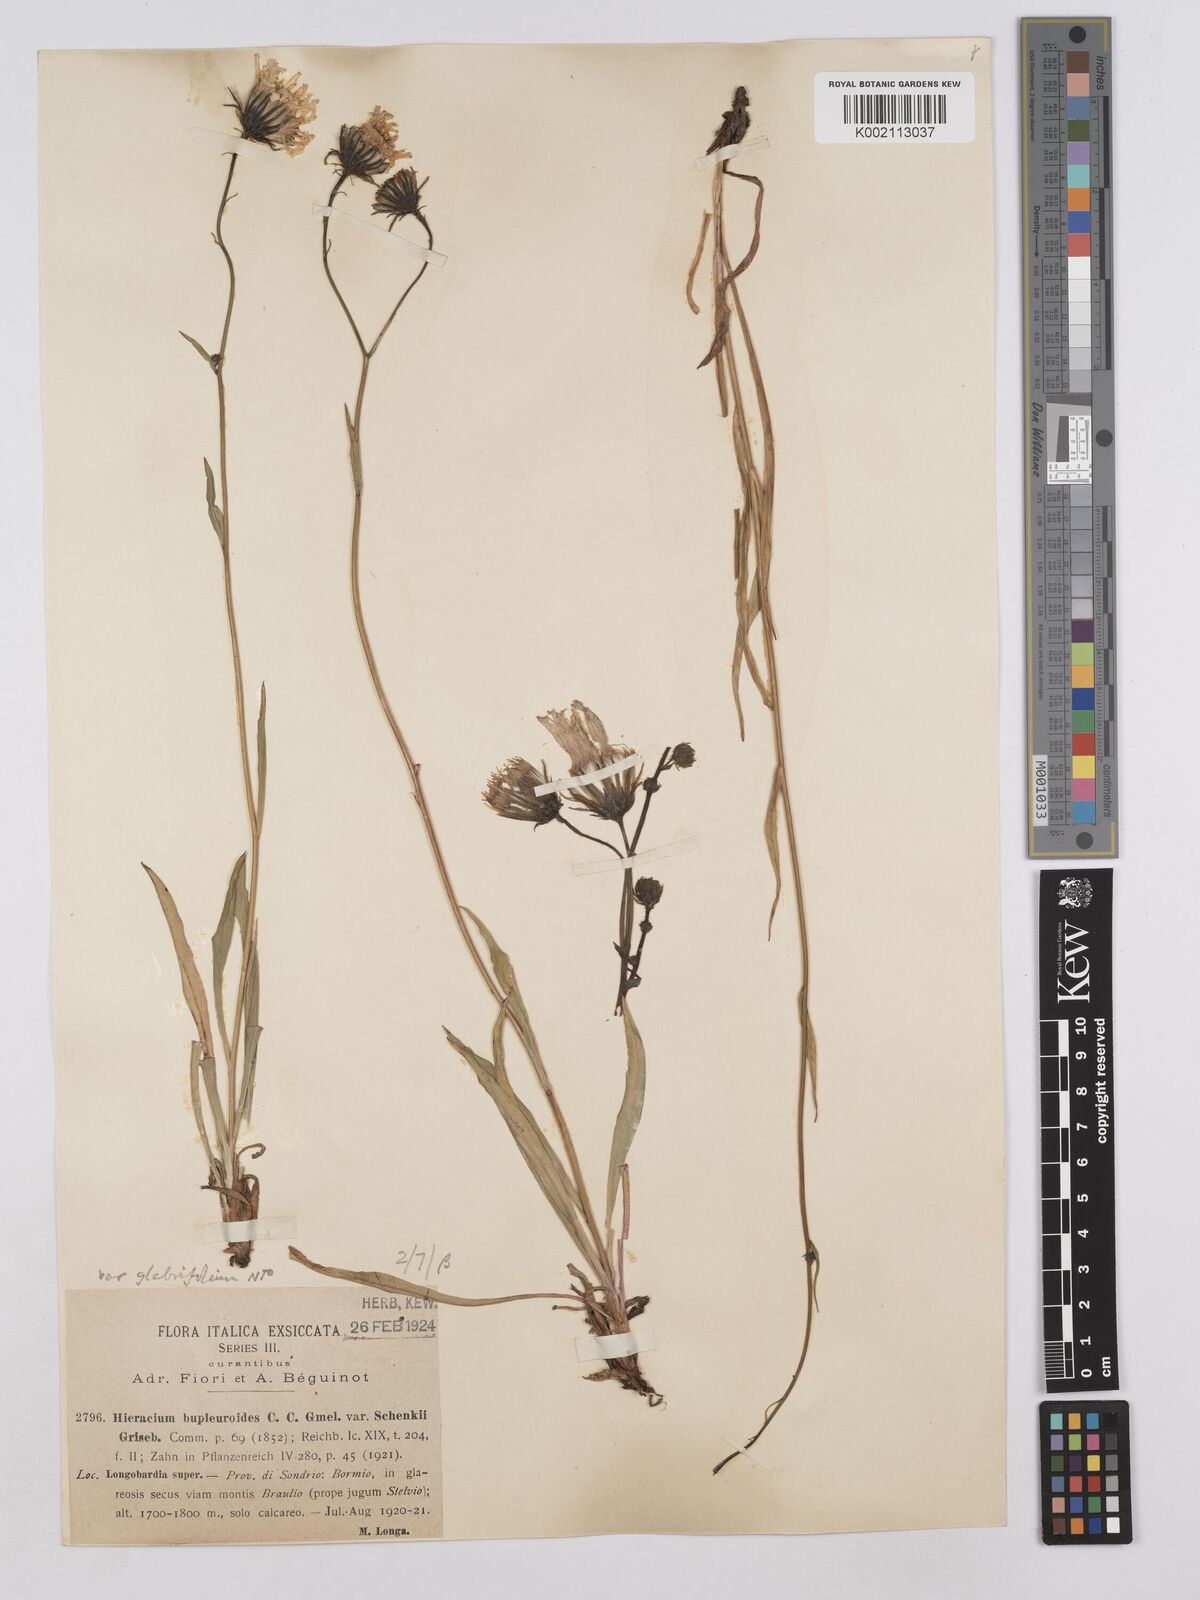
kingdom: Plantae
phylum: Tracheophyta
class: Magnoliopsida
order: Asterales
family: Asteraceae
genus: Hieracium
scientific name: Hieracium bupleuroides
